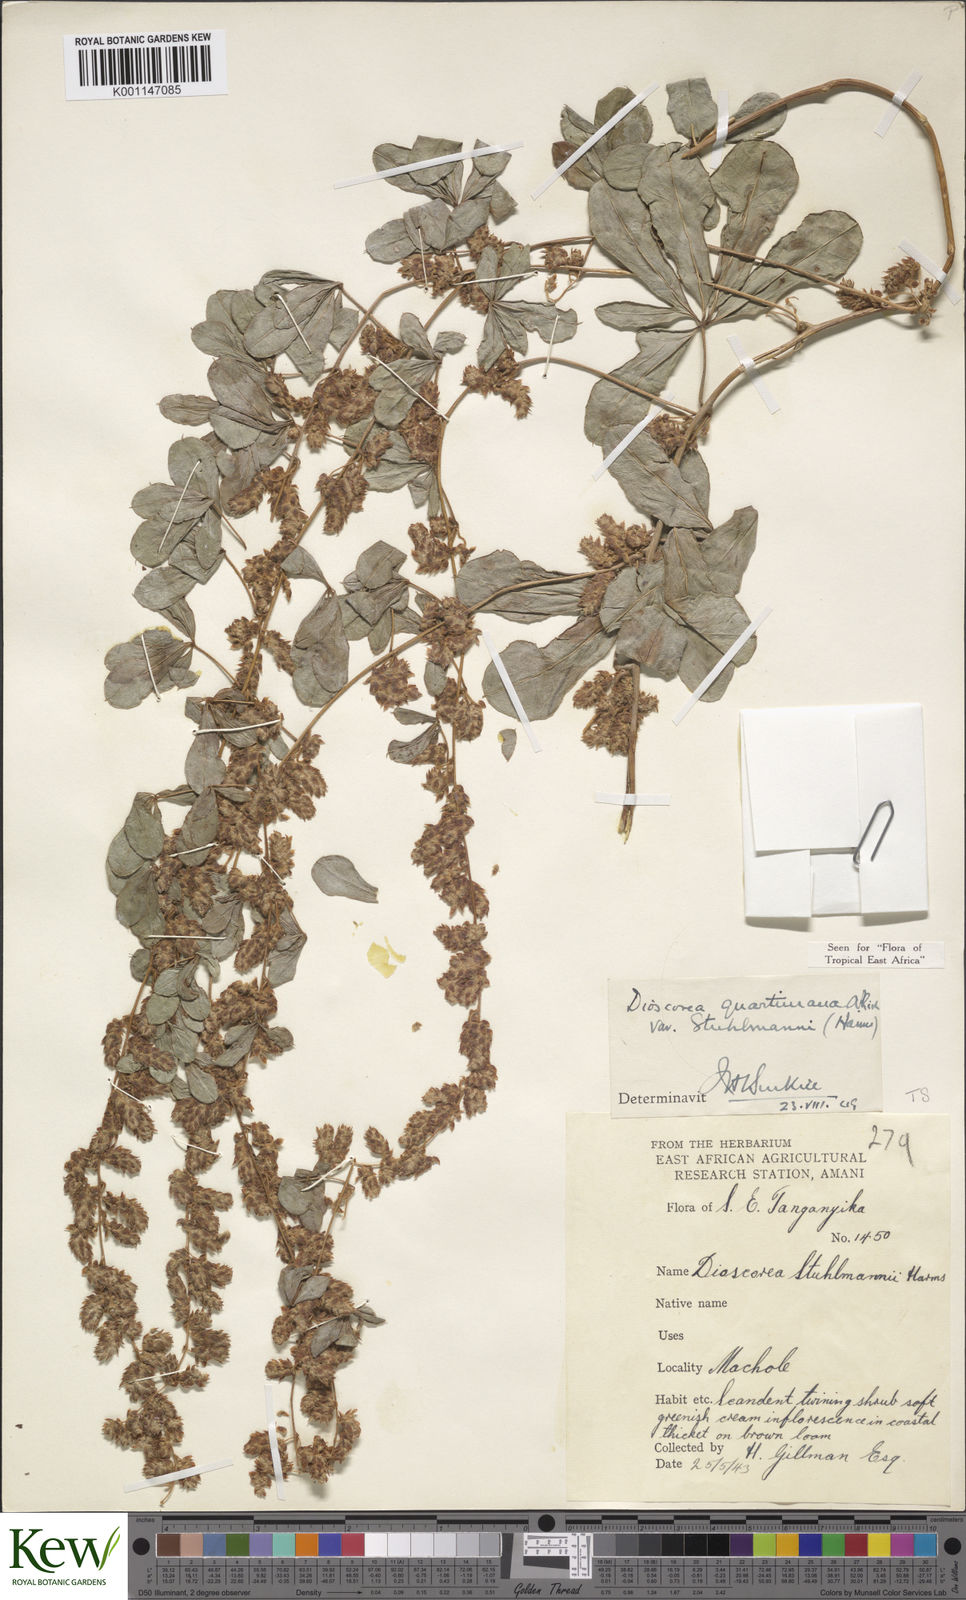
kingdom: Plantae
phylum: Tracheophyta
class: Liliopsida
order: Dioscoreales
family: Dioscoreaceae
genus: Dioscorea
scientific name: Dioscorea quartiniana
